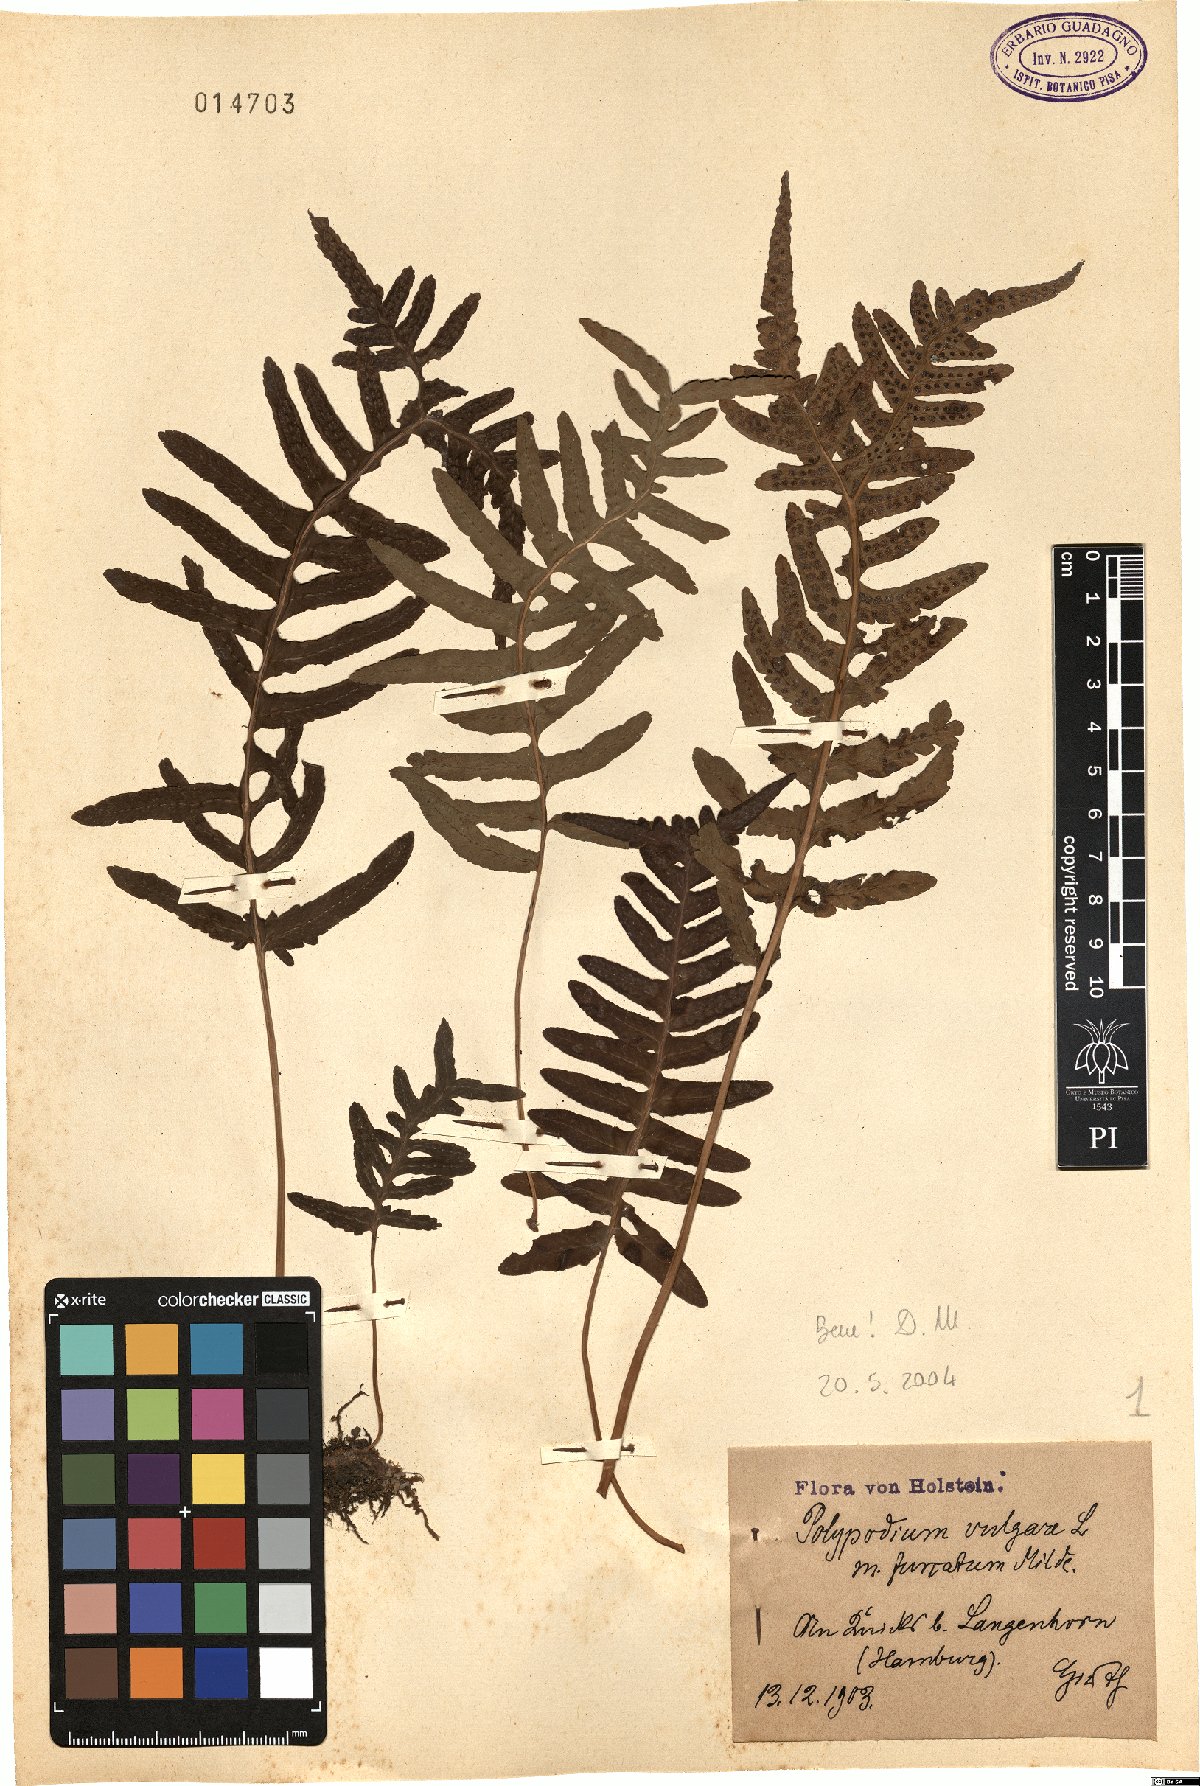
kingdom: Plantae
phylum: Tracheophyta
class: Polypodiopsida
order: Polypodiales
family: Polypodiaceae
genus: Polypodium
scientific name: Polypodium vulgare
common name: Common polypody
